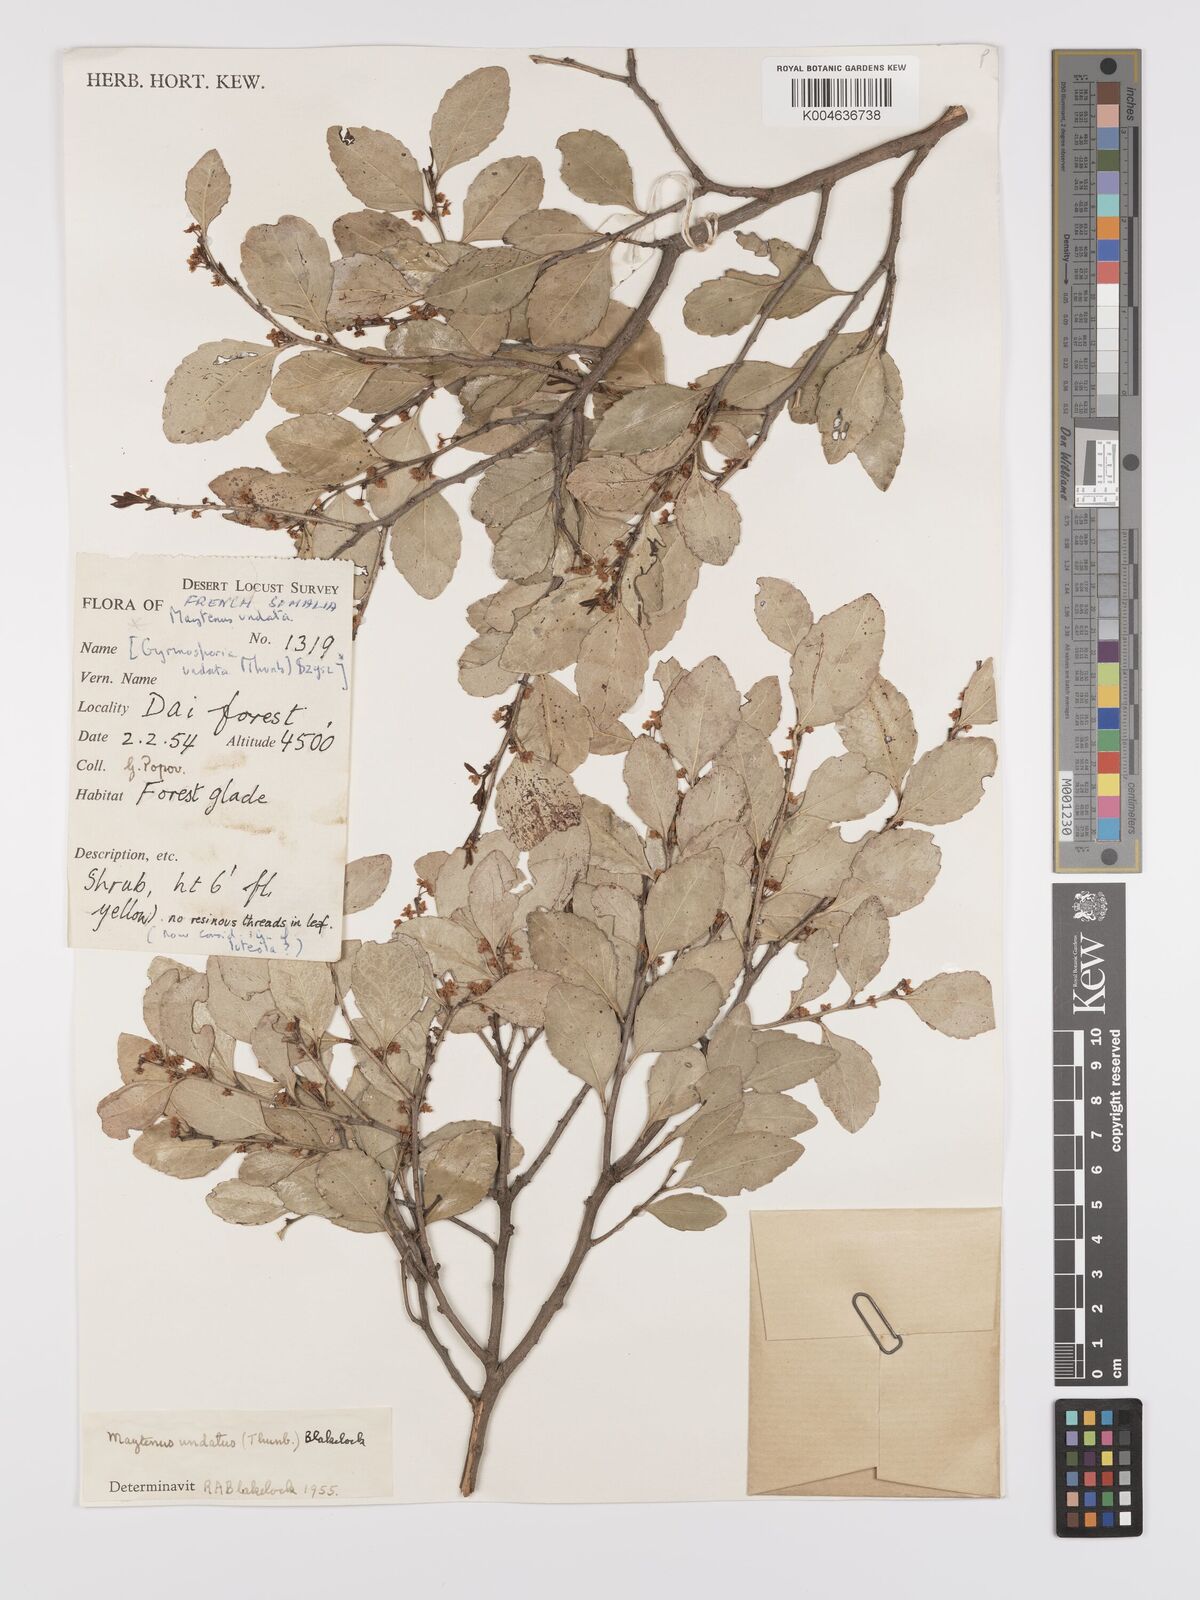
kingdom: Plantae
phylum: Tracheophyta
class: Magnoliopsida
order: Celastrales
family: Celastraceae
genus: Gymnosporia
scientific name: Gymnosporia undata
